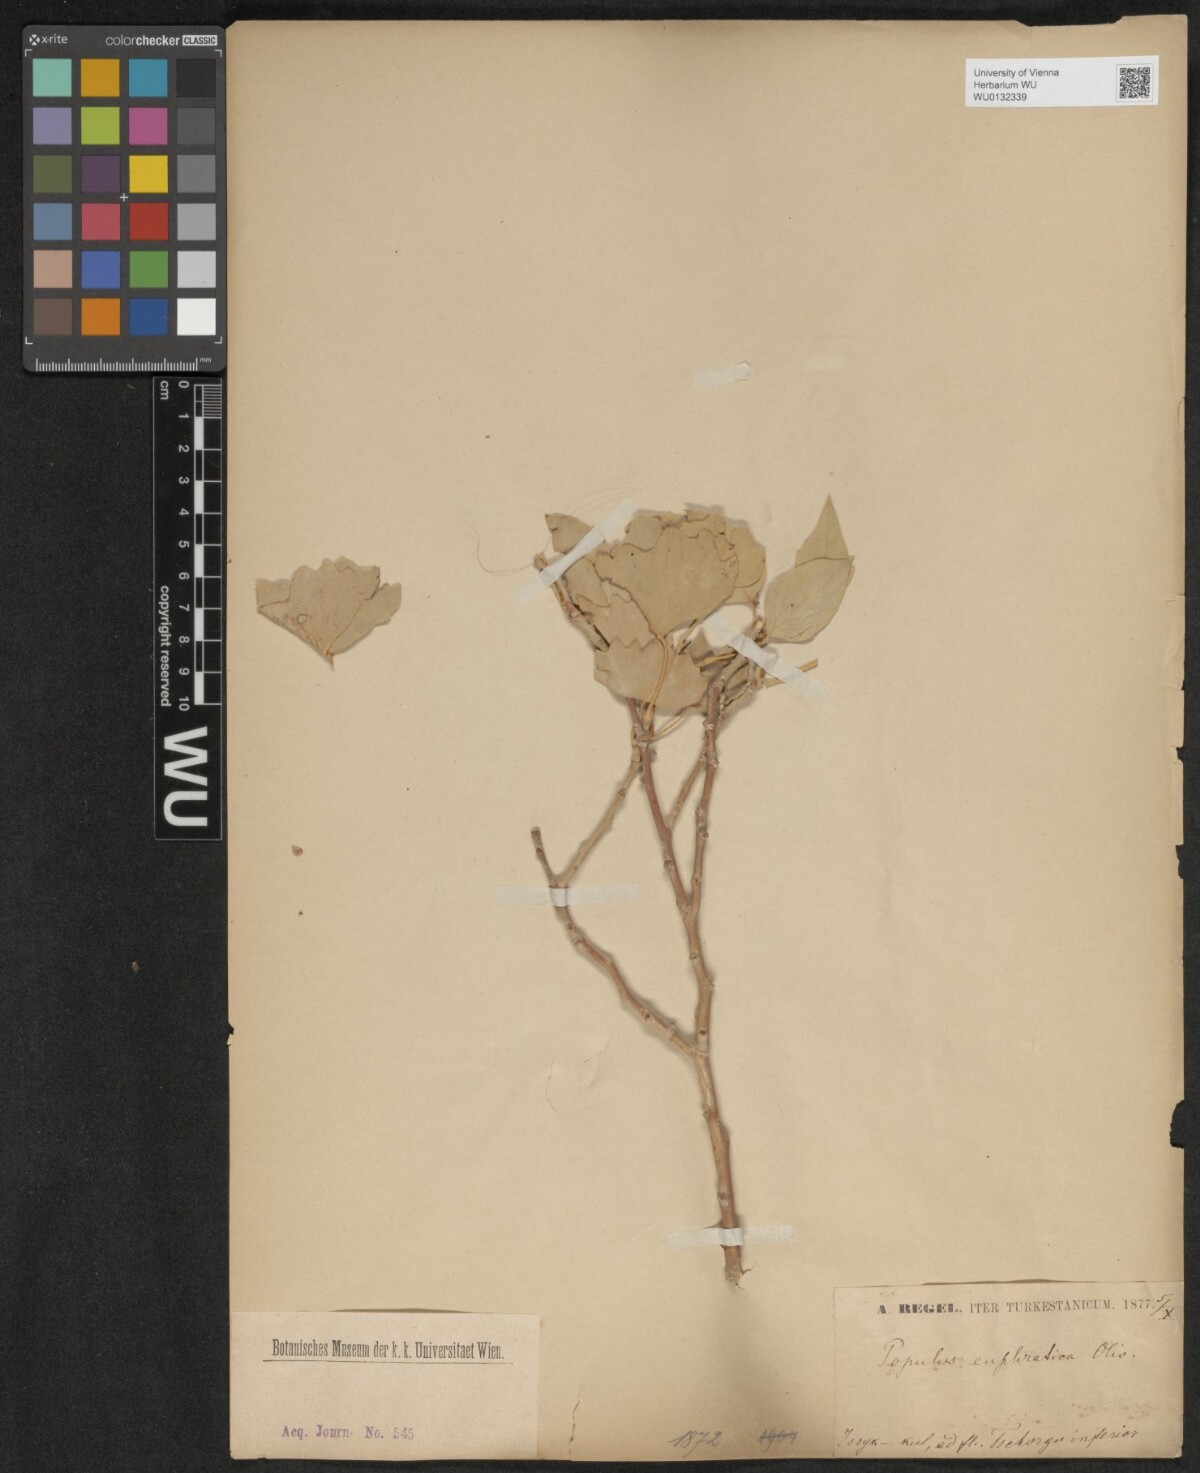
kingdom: Plantae
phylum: Tracheophyta
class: Magnoliopsida
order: Malpighiales
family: Salicaceae
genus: Populus
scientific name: Populus euphratica
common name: Euphrates poplar
